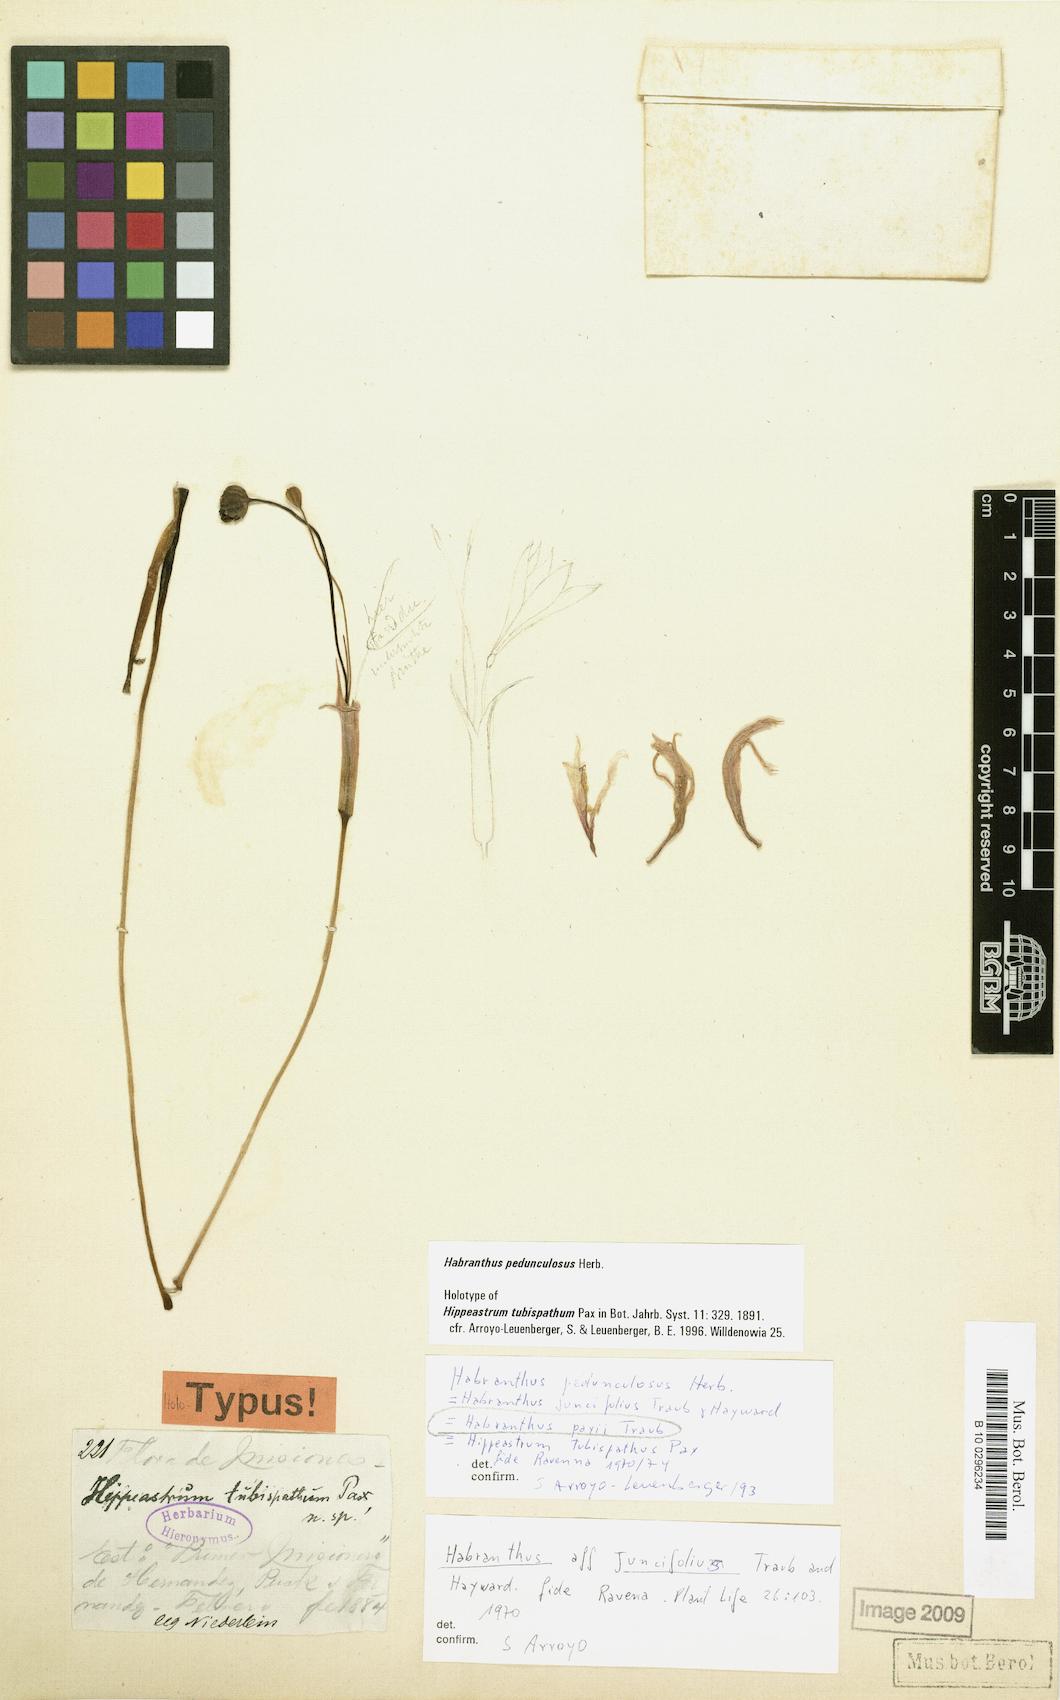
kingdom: Plantae
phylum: Tracheophyta
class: Liliopsida
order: Asparagales
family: Amaryllidaceae
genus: Zephyranthes
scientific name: Zephyranthes pedunculosa
